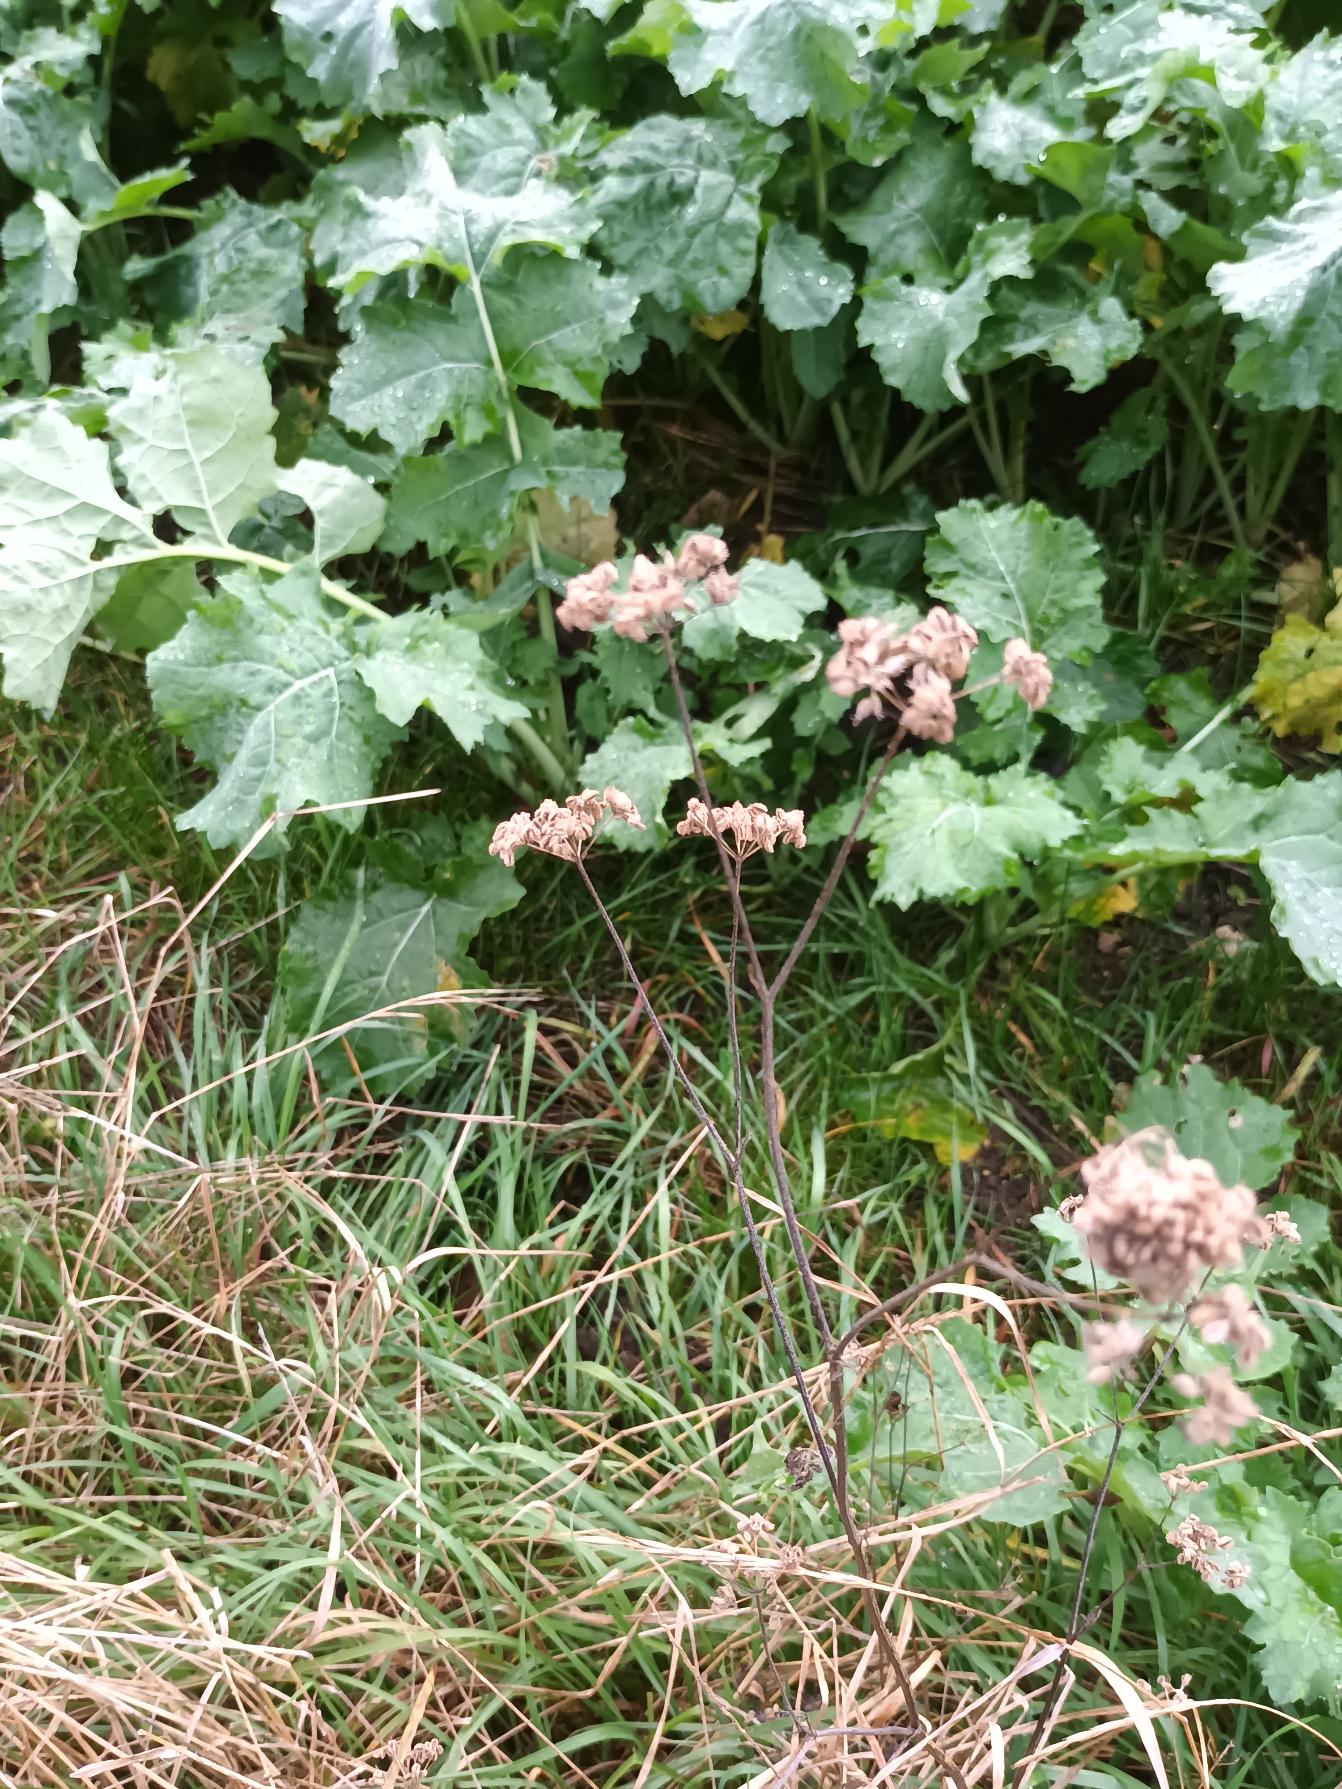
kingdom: Plantae
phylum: Tracheophyta
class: Magnoliopsida
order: Apiales
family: Apiaceae
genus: Torilis
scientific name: Torilis japonica
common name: Hvas randfrø
